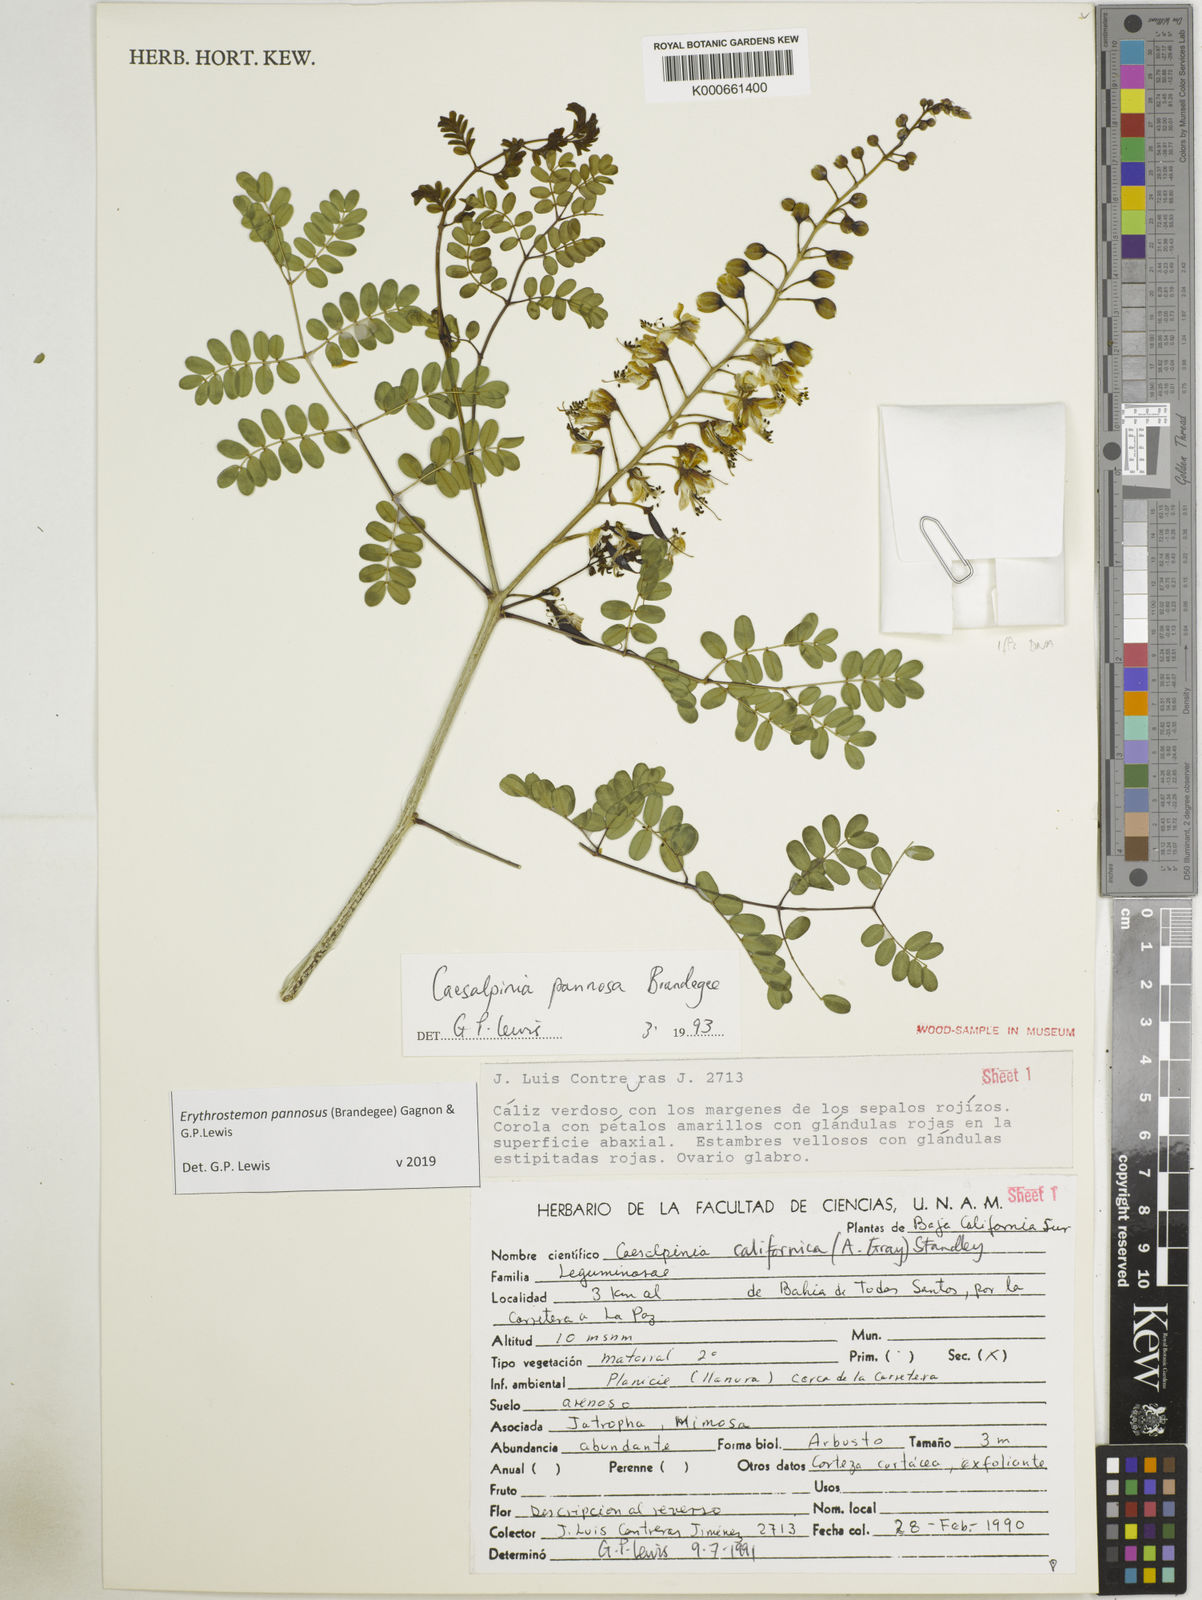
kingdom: Plantae
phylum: Tracheophyta
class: Magnoliopsida
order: Fabales
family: Fabaceae
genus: Erythrostemon
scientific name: Erythrostemon pannosus
